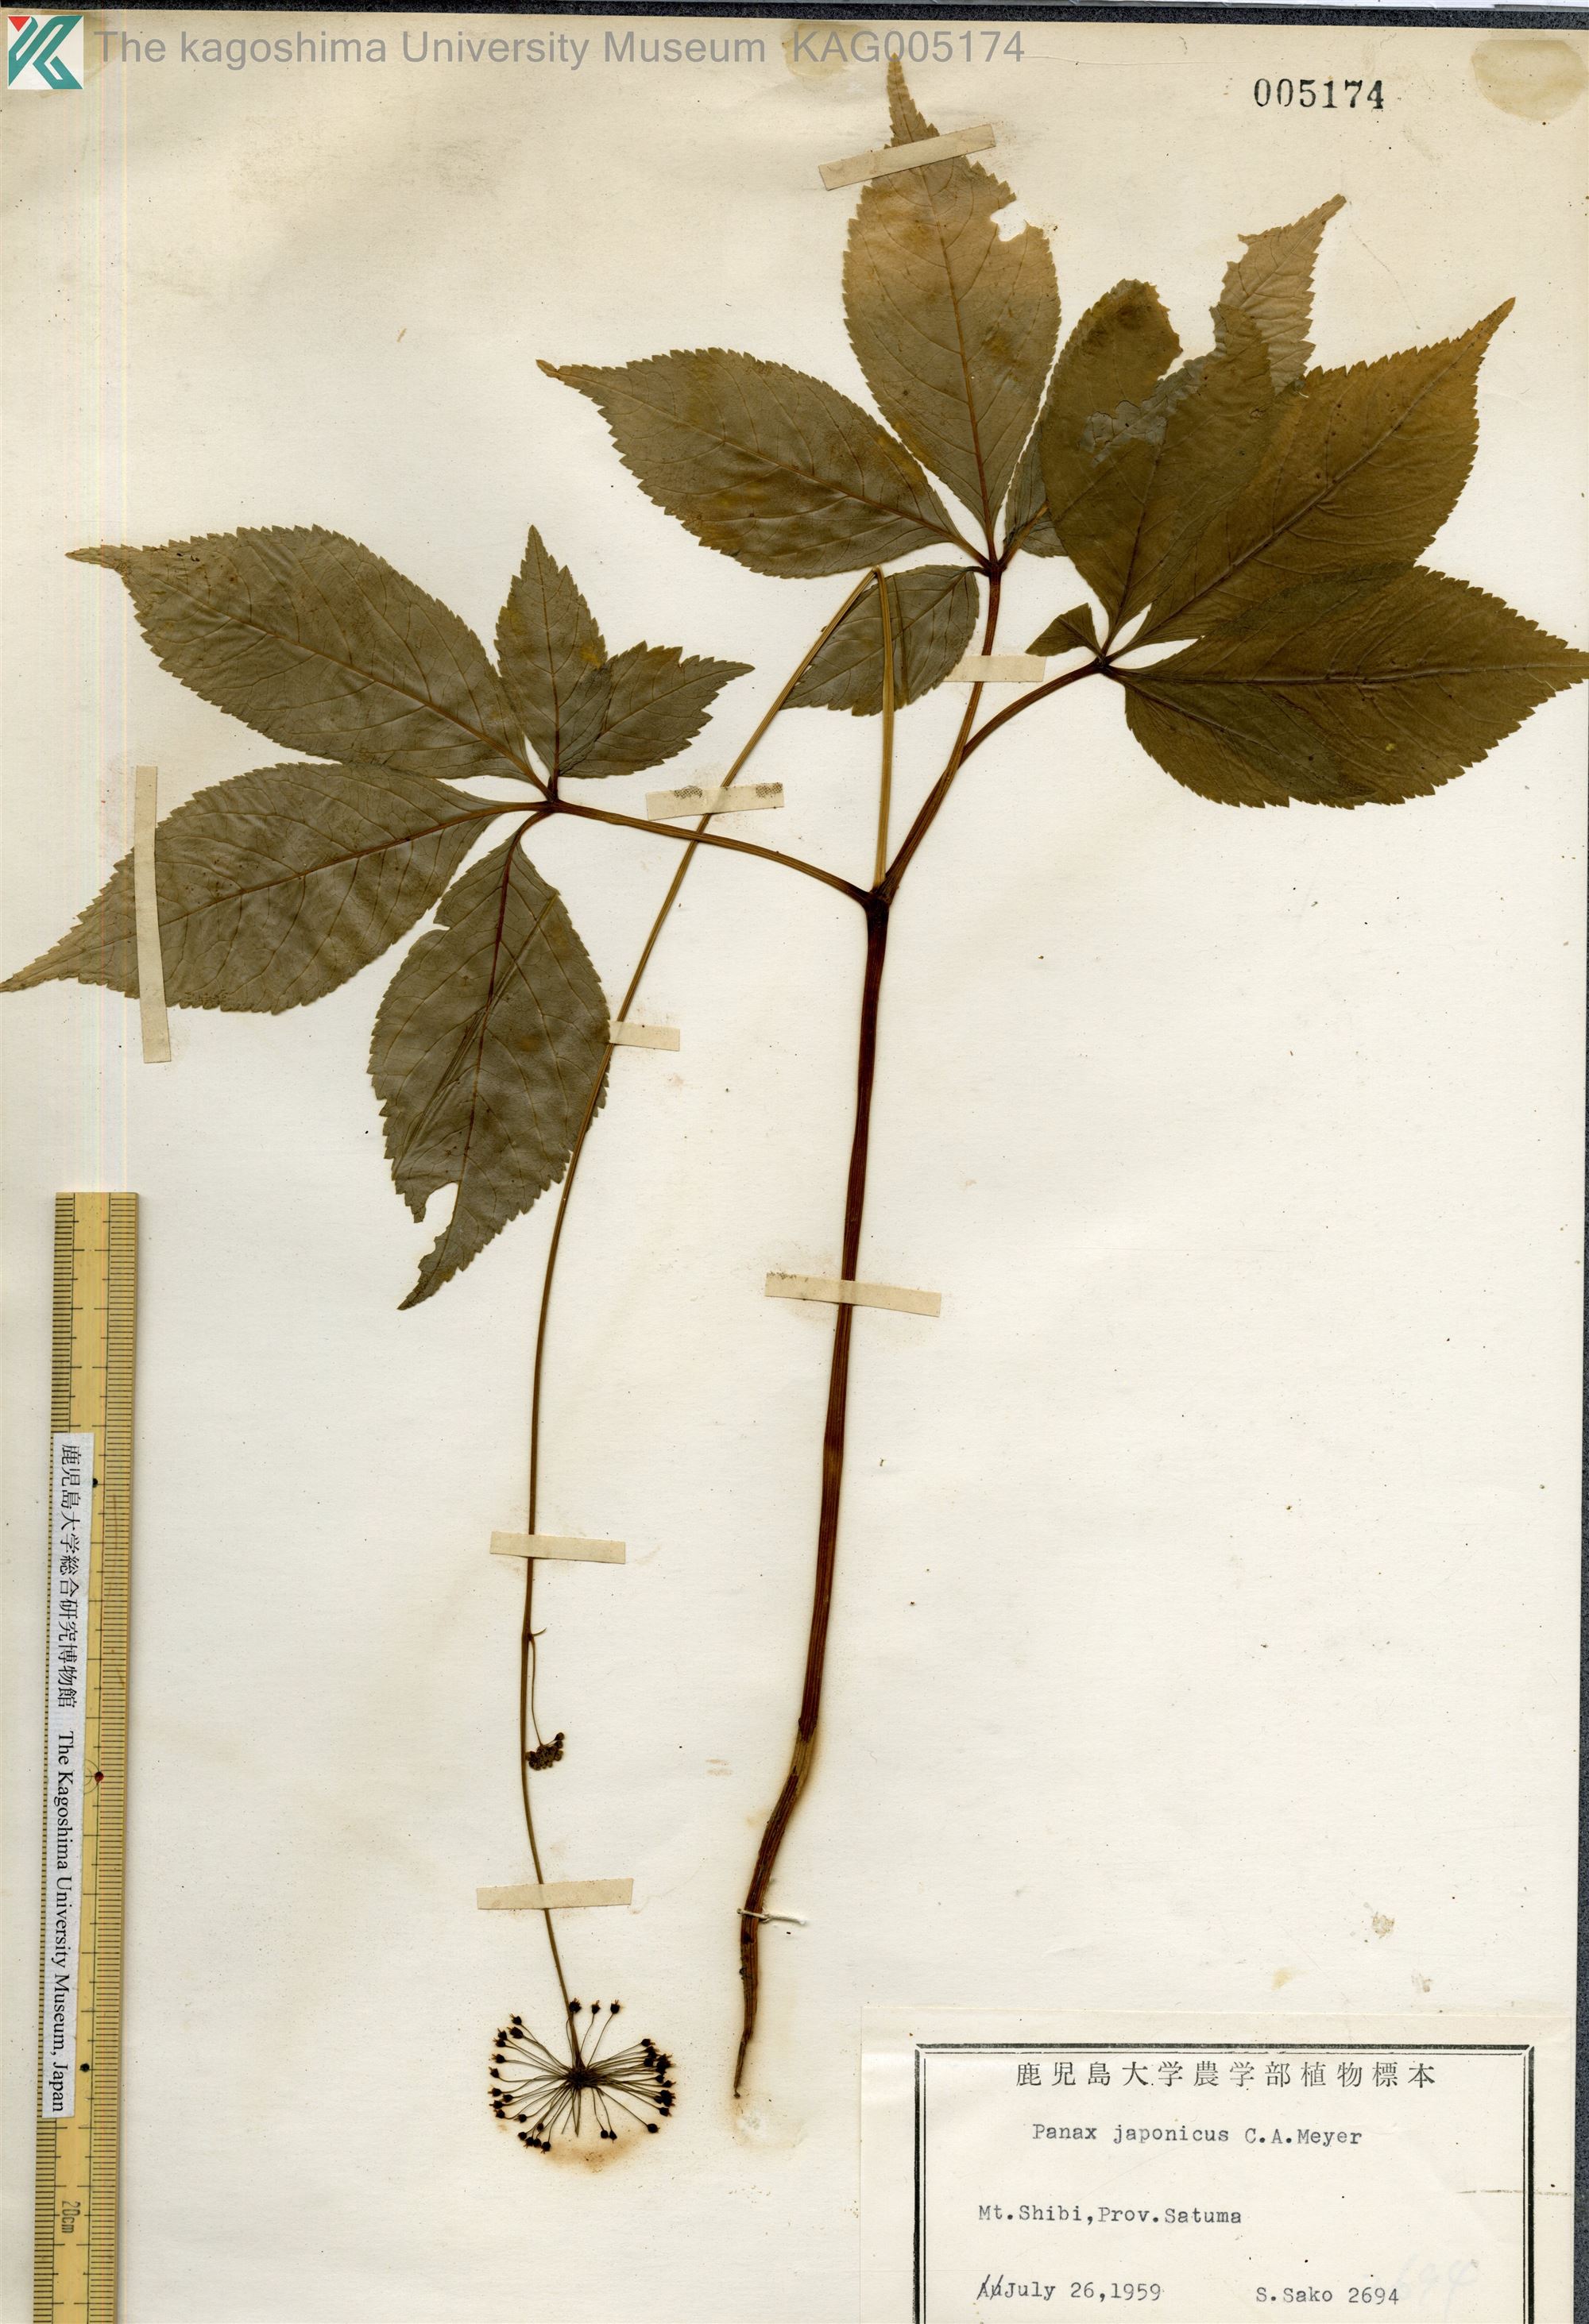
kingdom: Plantae
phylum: Tracheophyta
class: Magnoliopsida
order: Apiales
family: Araliaceae
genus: Panax
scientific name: Panax japonicus
